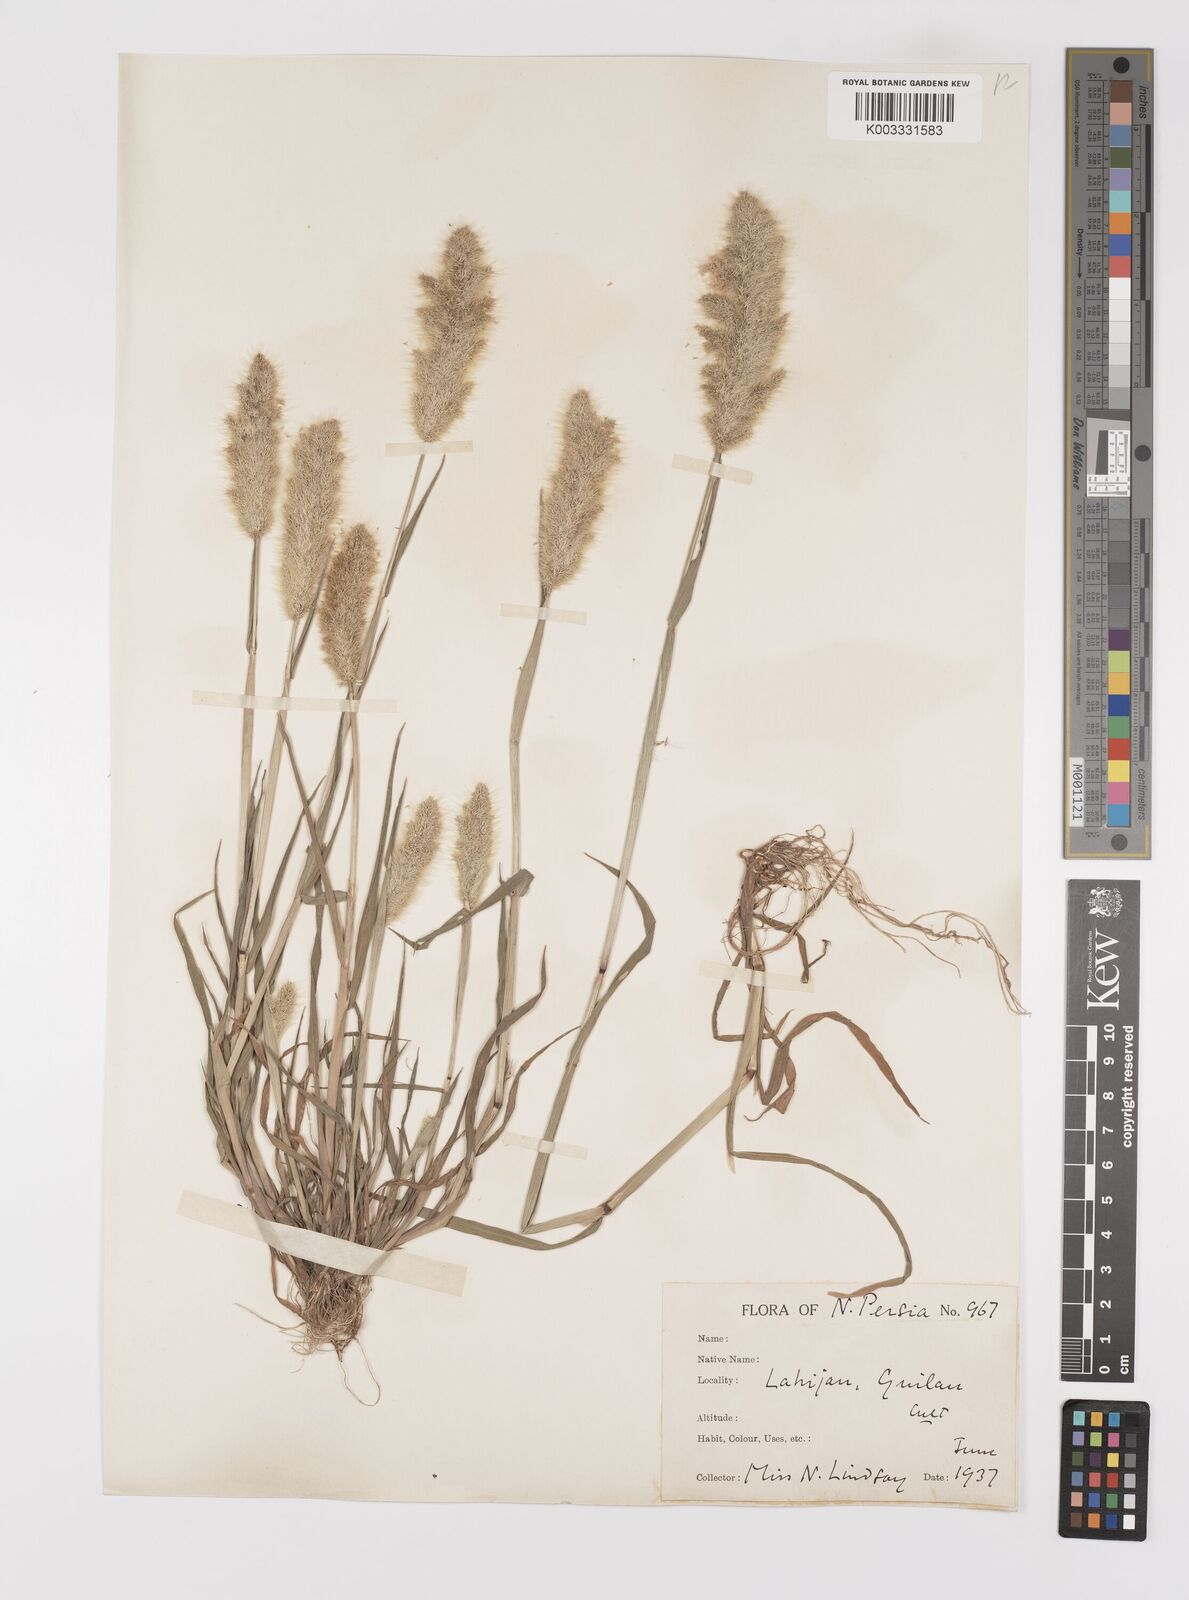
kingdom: Plantae
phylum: Tracheophyta
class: Liliopsida
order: Poales
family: Poaceae
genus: Polypogon
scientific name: Polypogon monspeliensis
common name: Annual rabbitsfoot grass
